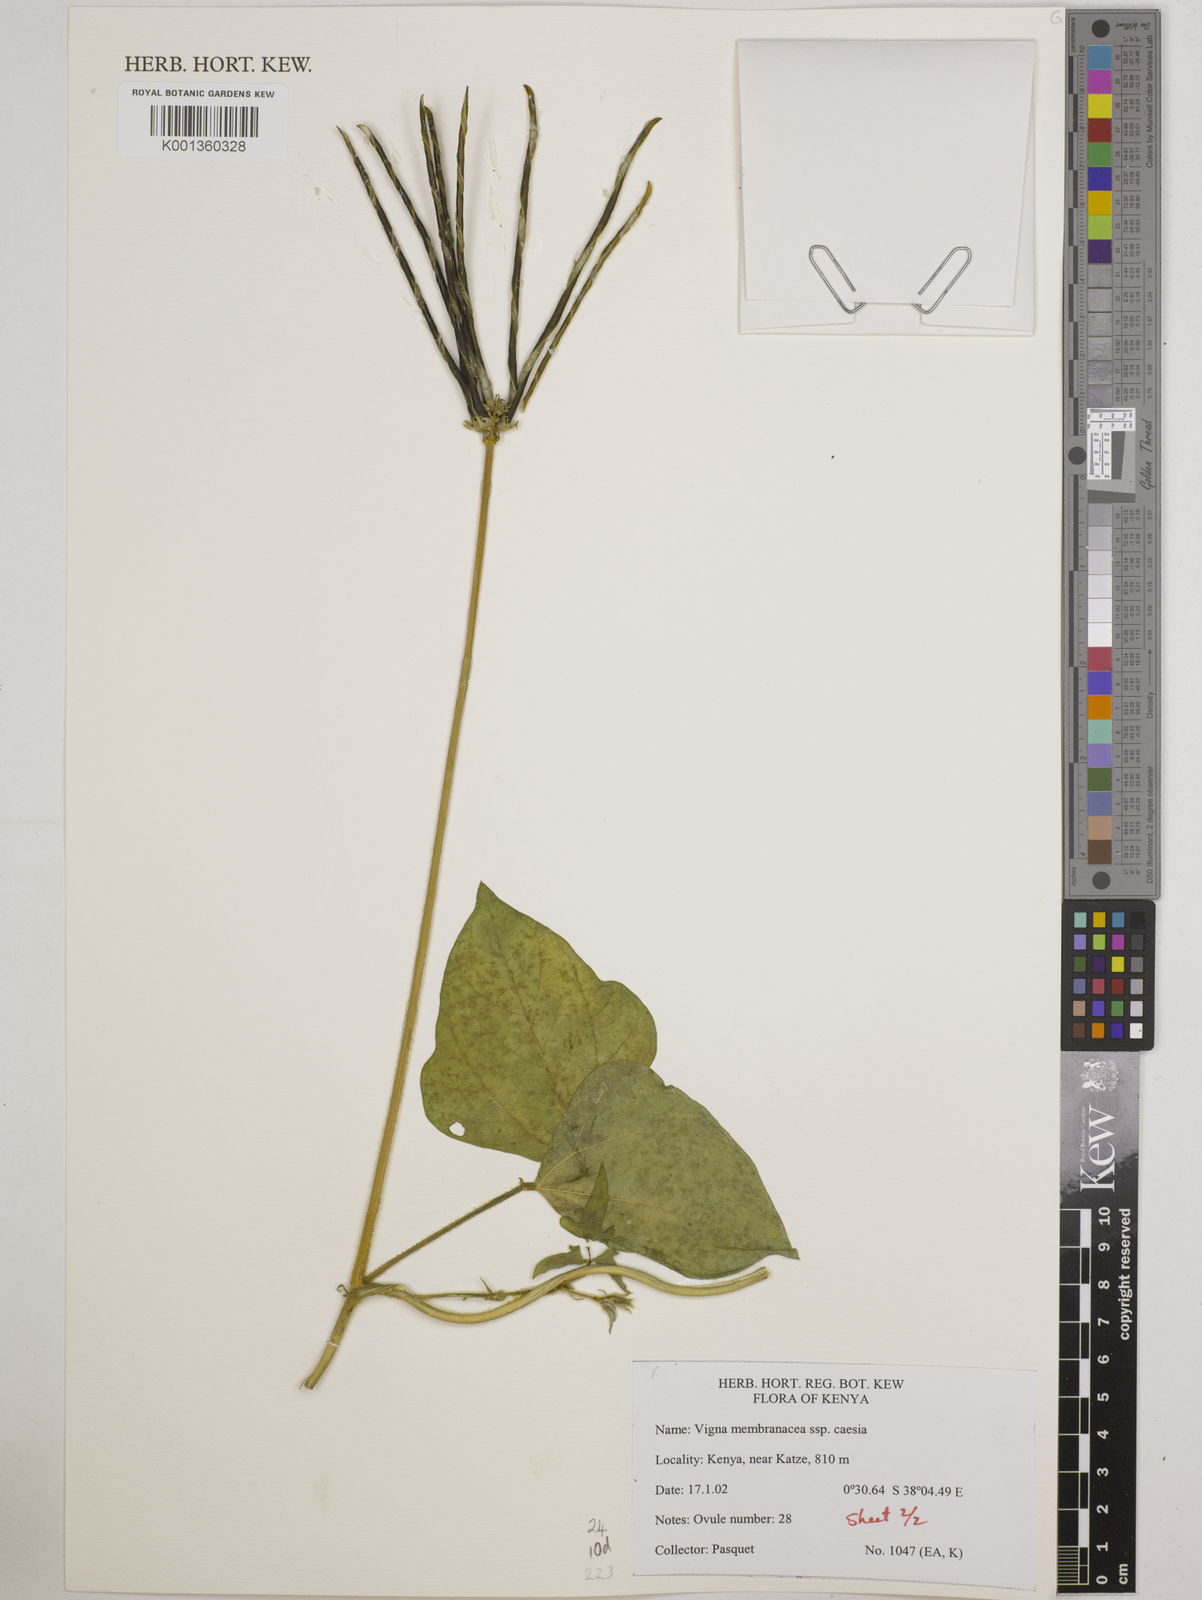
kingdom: Plantae
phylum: Tracheophyta
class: Magnoliopsida
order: Fabales
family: Fabaceae
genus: Vigna
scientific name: Vigna
